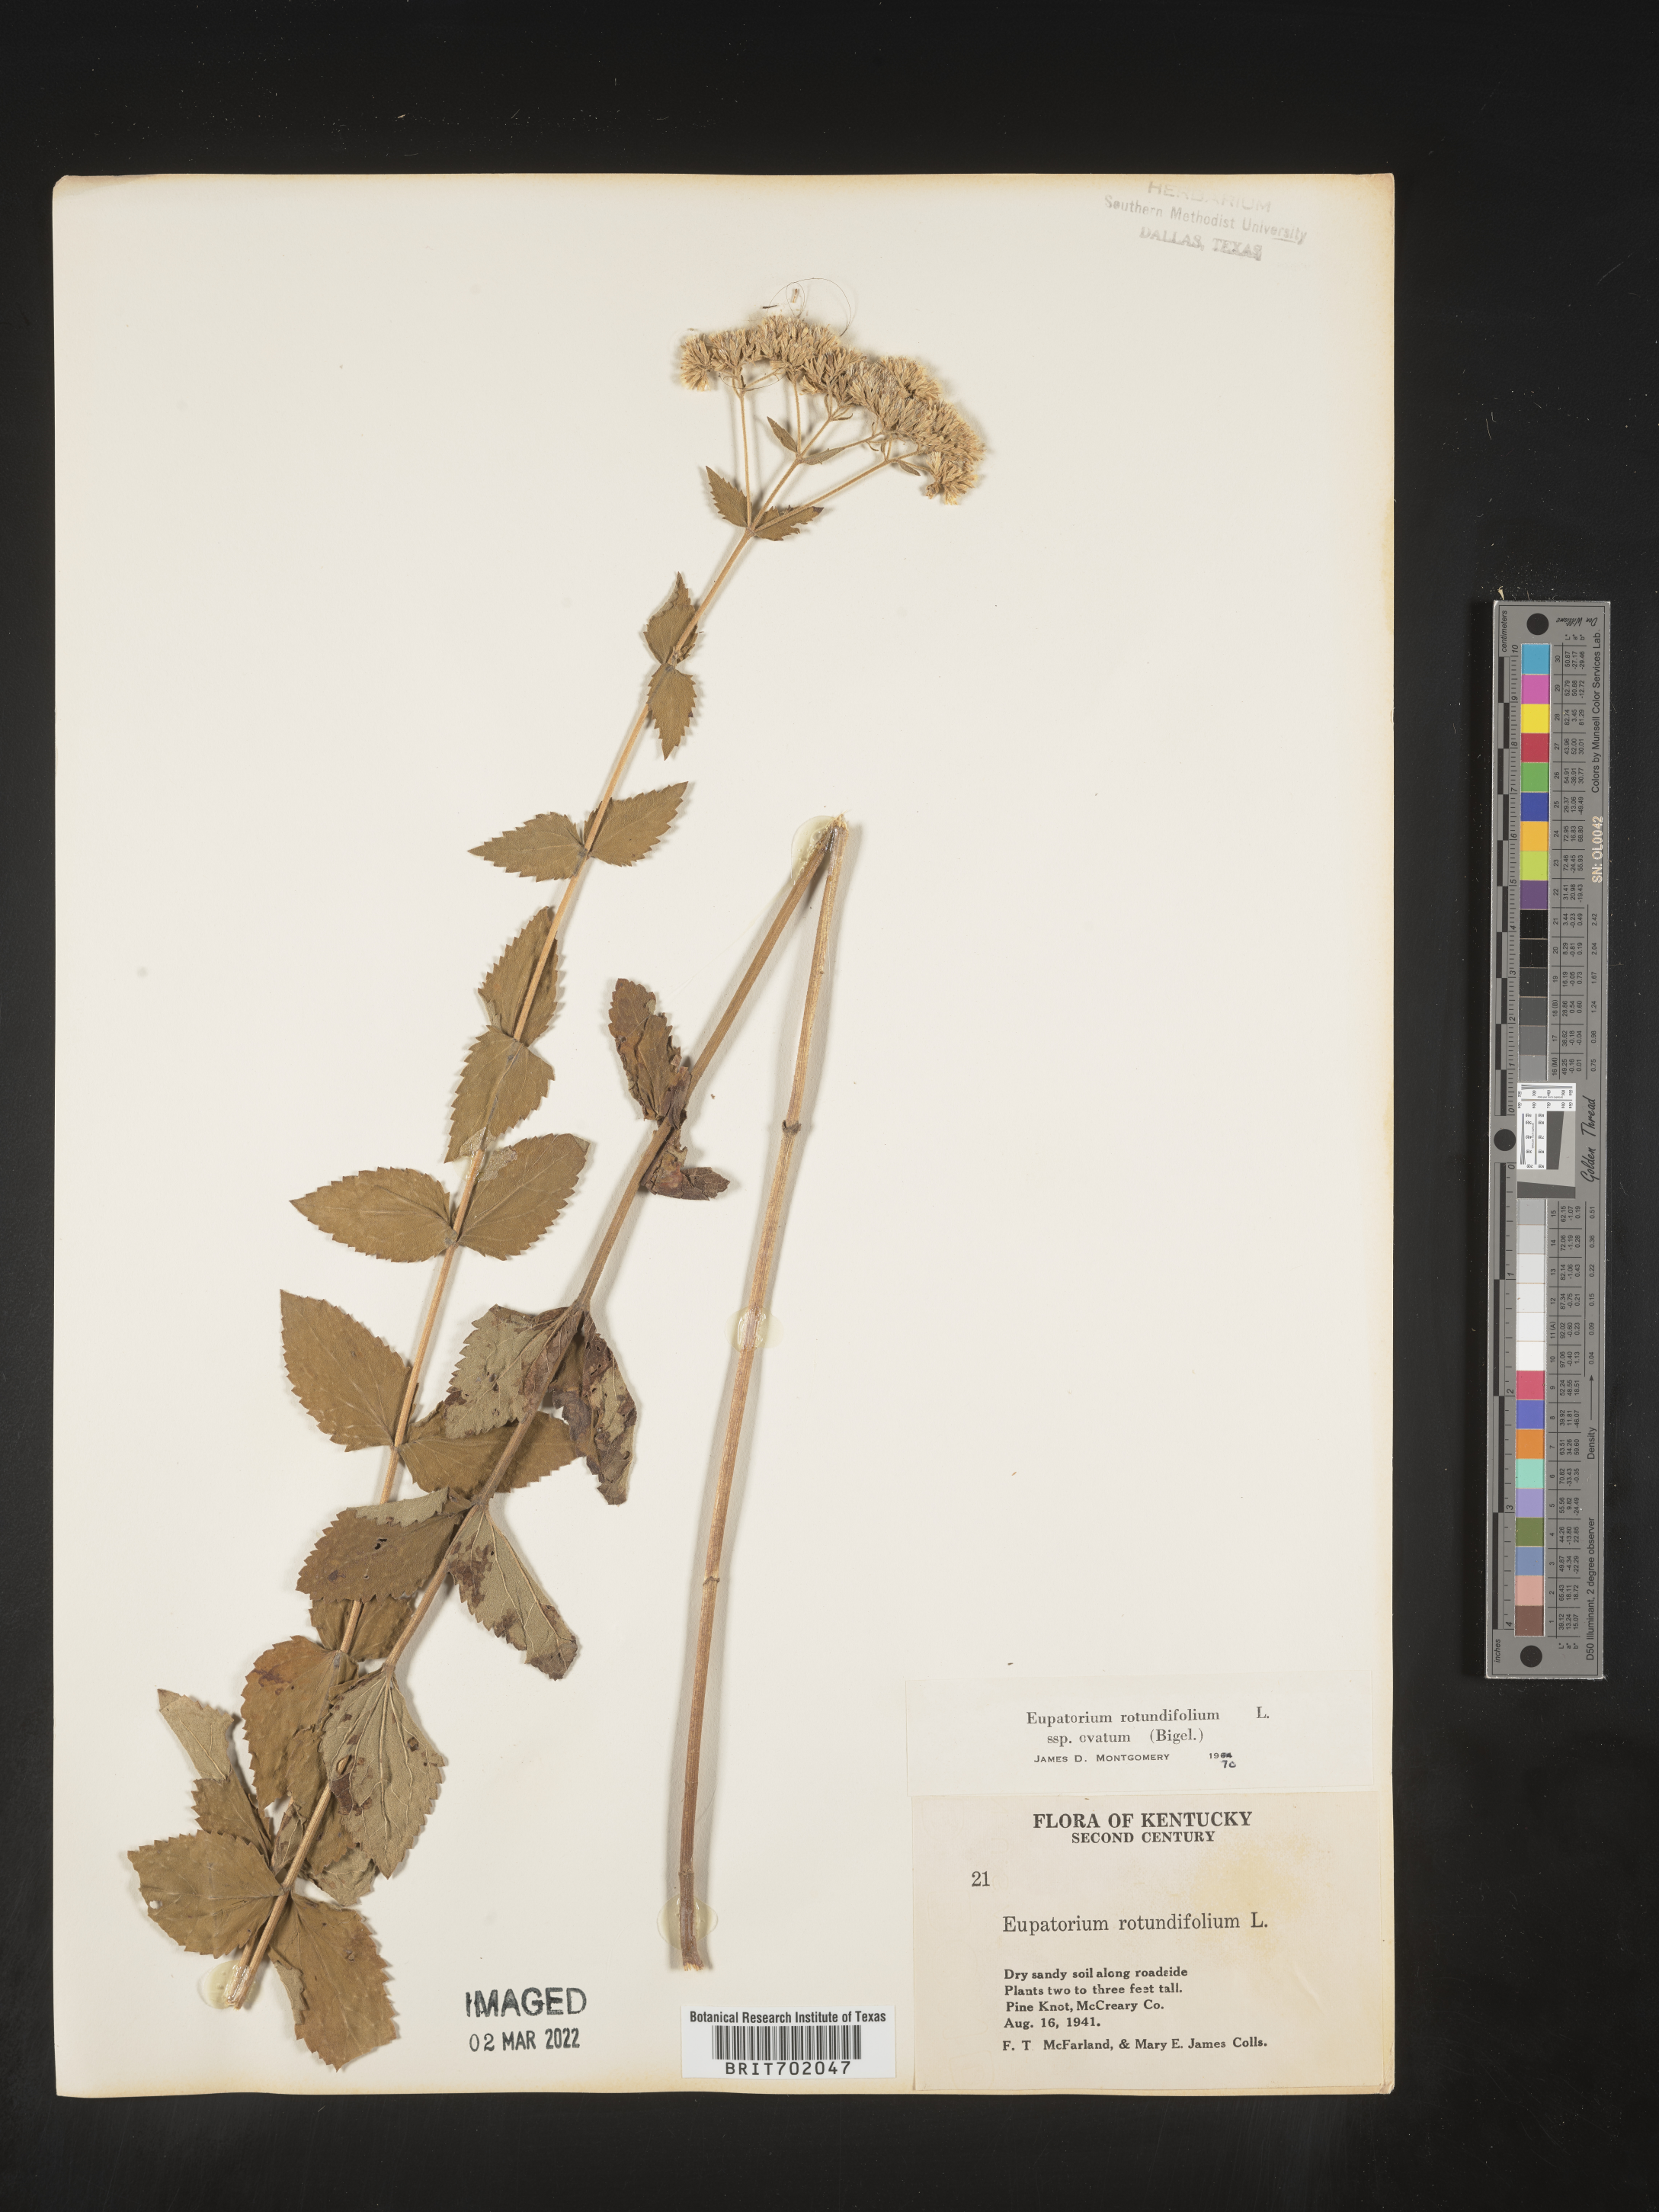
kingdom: Plantae
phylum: Tracheophyta
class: Magnoliopsida
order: Asterales
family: Asteraceae
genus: Eupatorium
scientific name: Eupatorium rotundifolium
